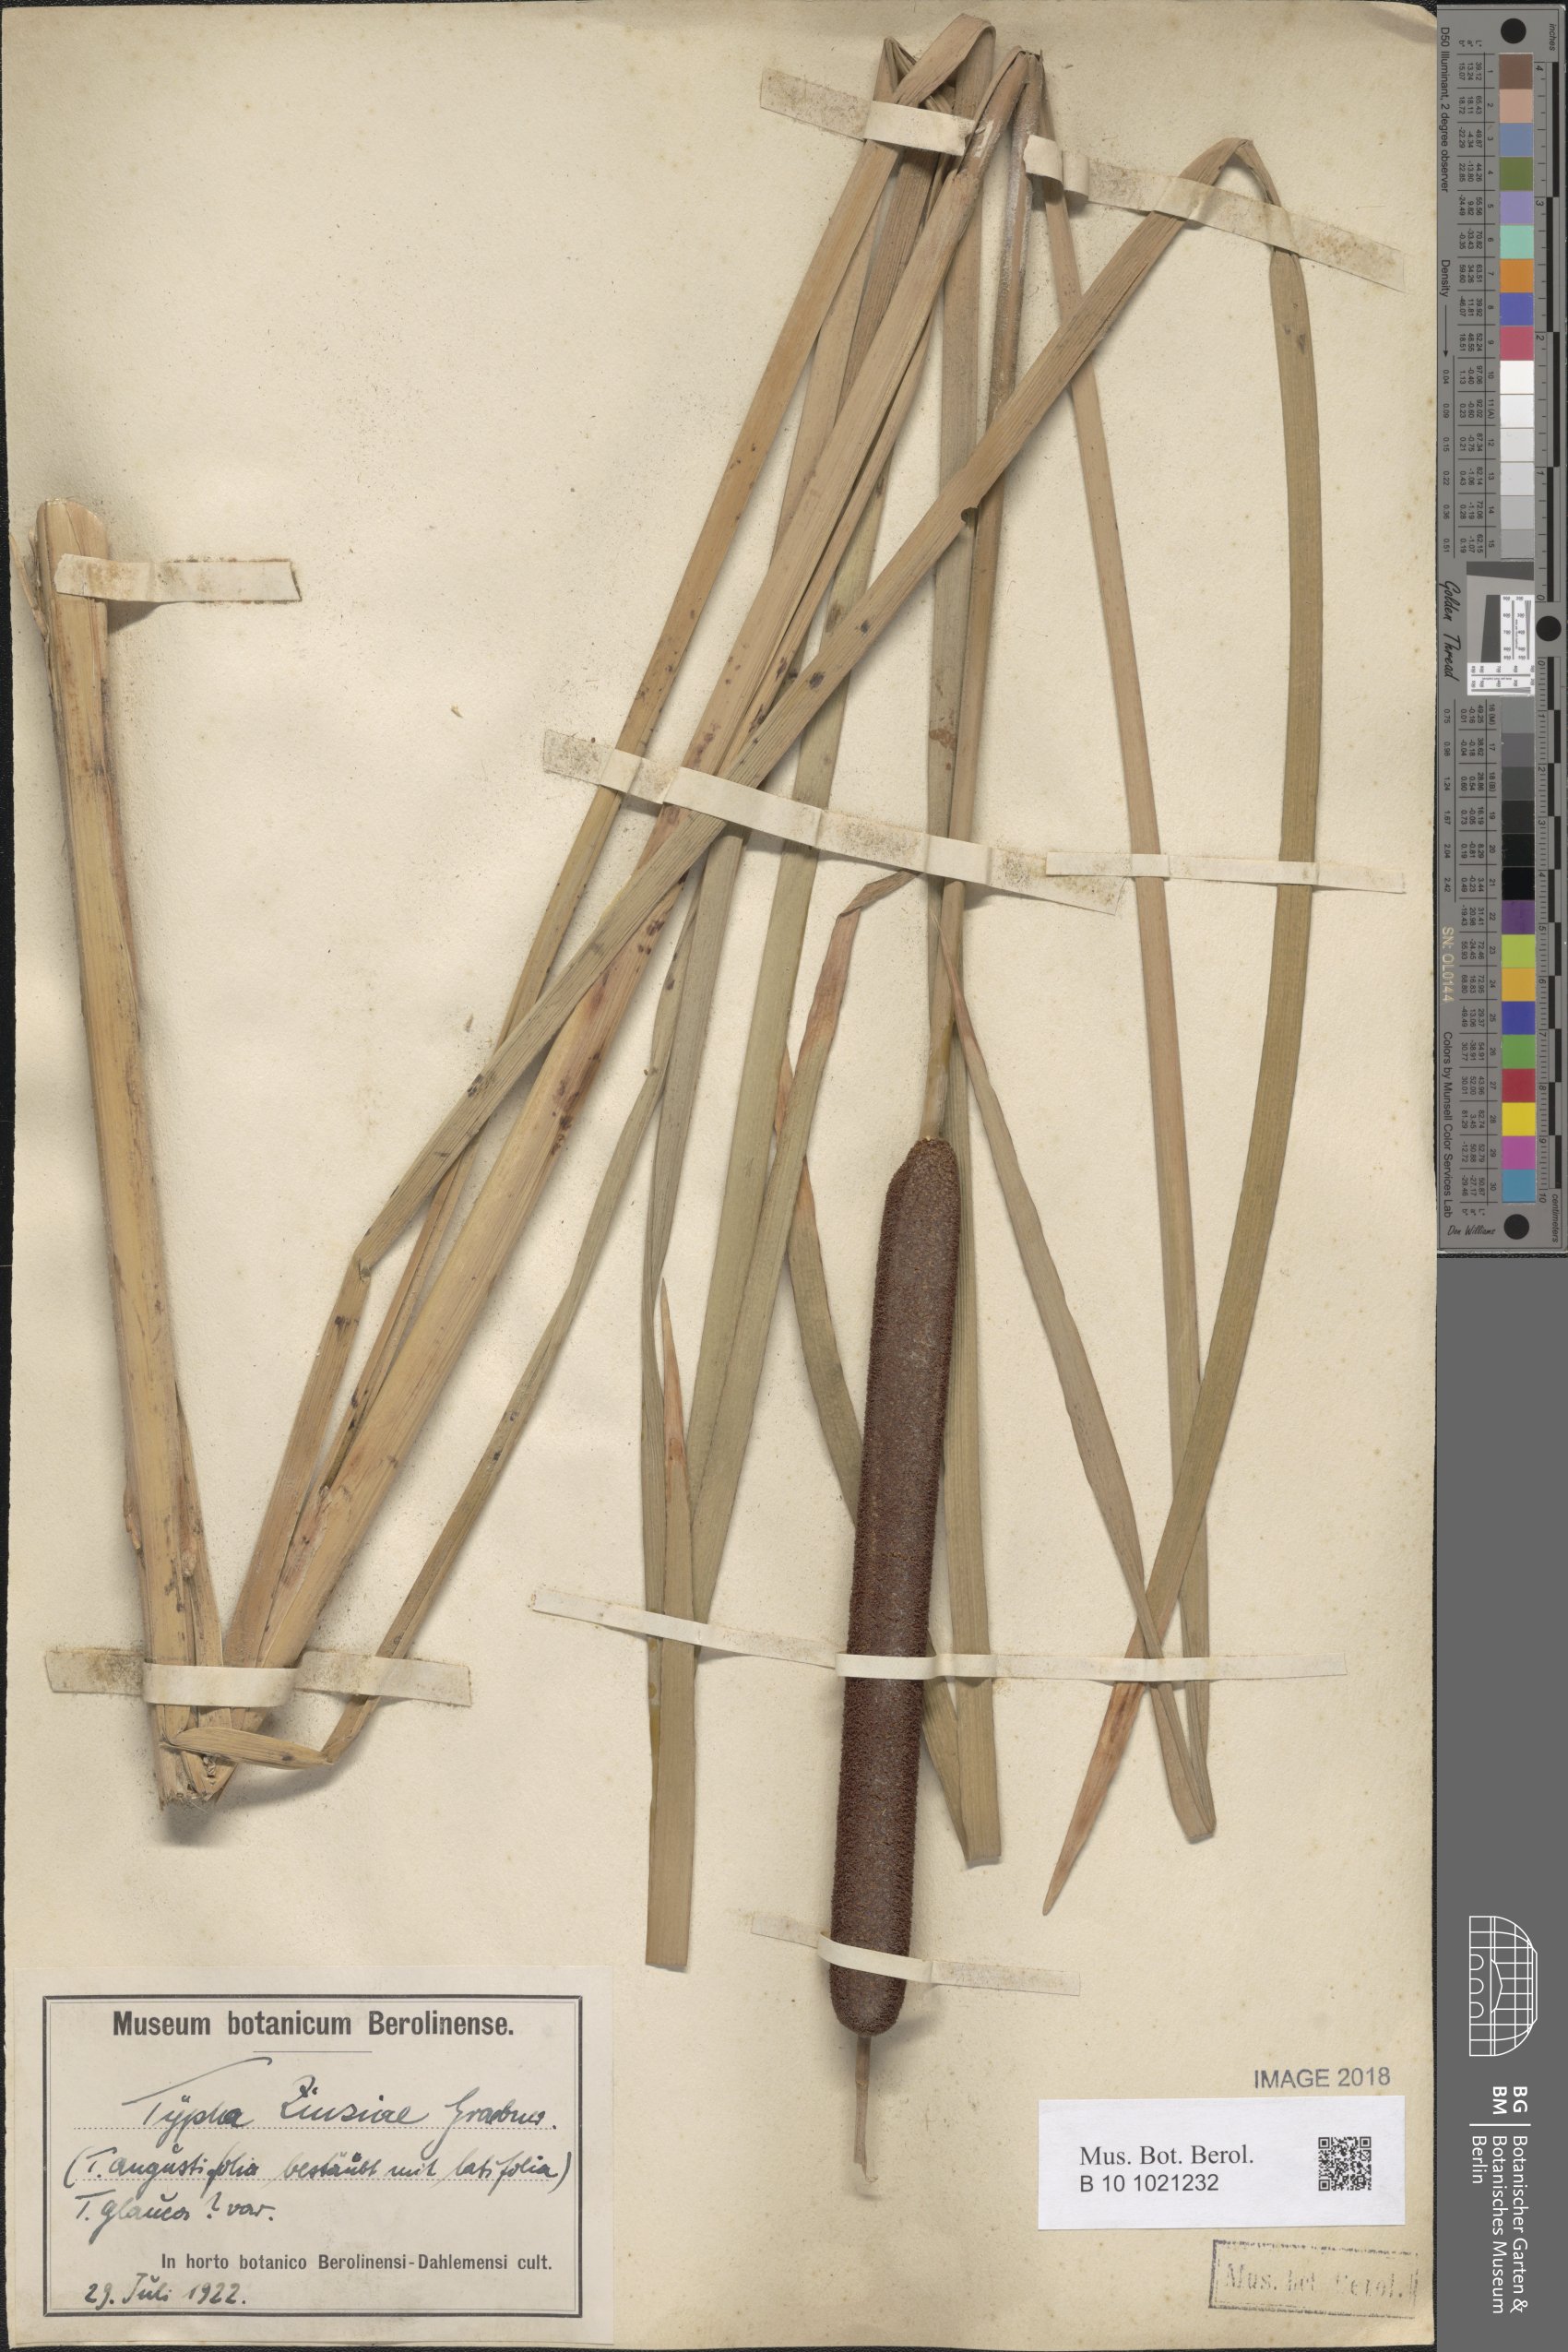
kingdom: Plantae
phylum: Tracheophyta
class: Liliopsida
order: Poales
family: Typhaceae
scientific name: Typhaceae
